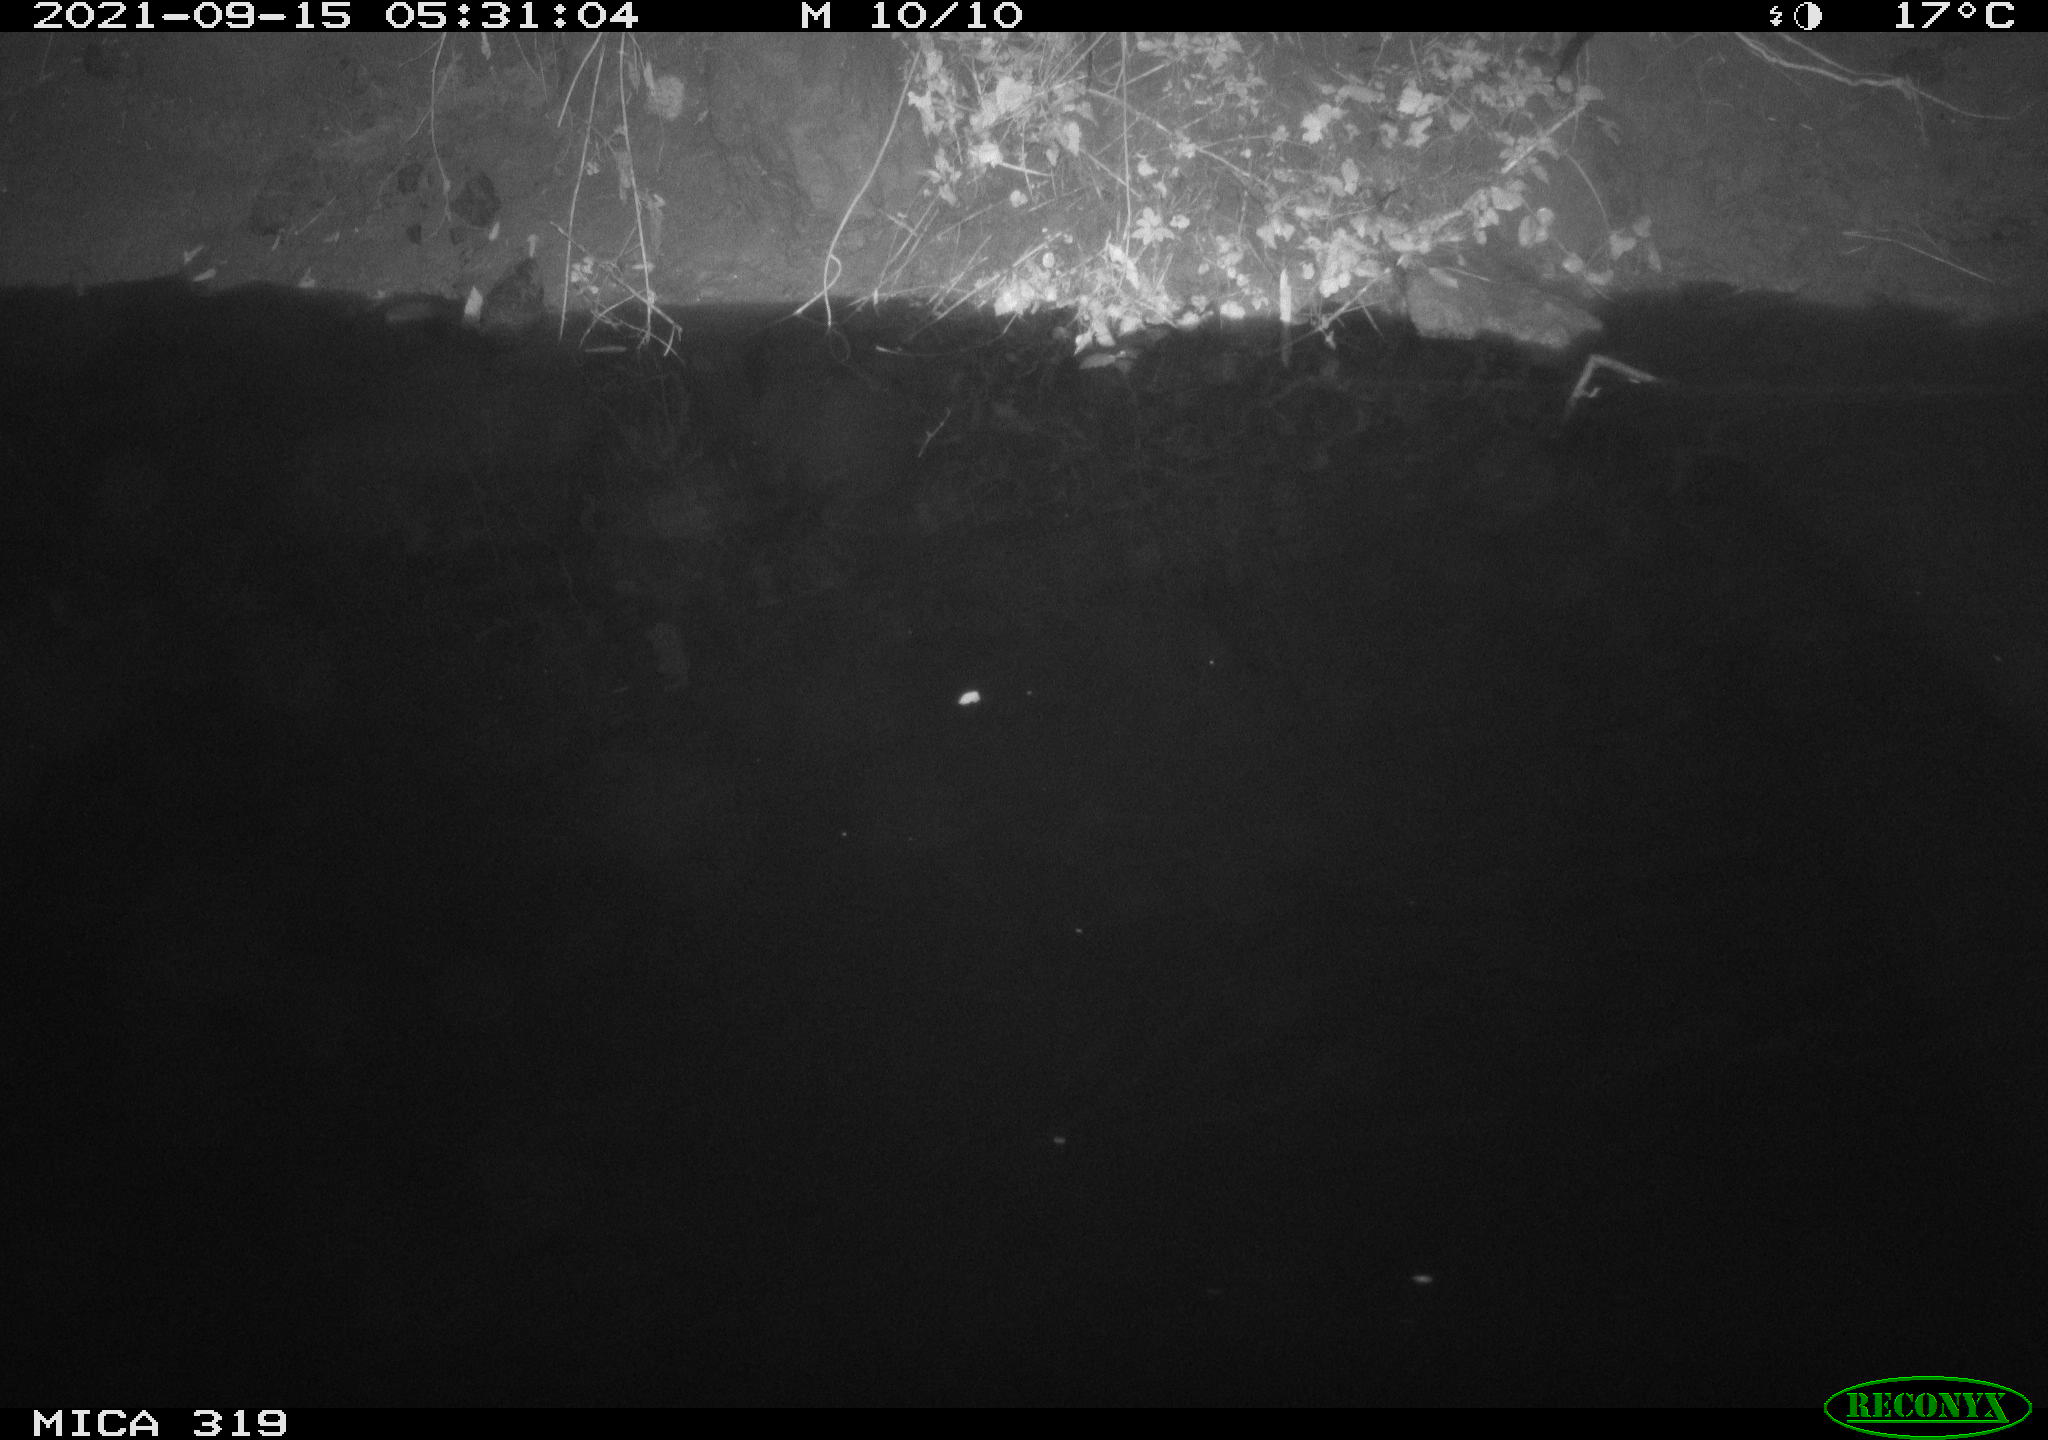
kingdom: Animalia
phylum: Chordata
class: Aves
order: Anseriformes
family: Anatidae
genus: Anas
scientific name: Anas platyrhynchos
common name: Mallard
